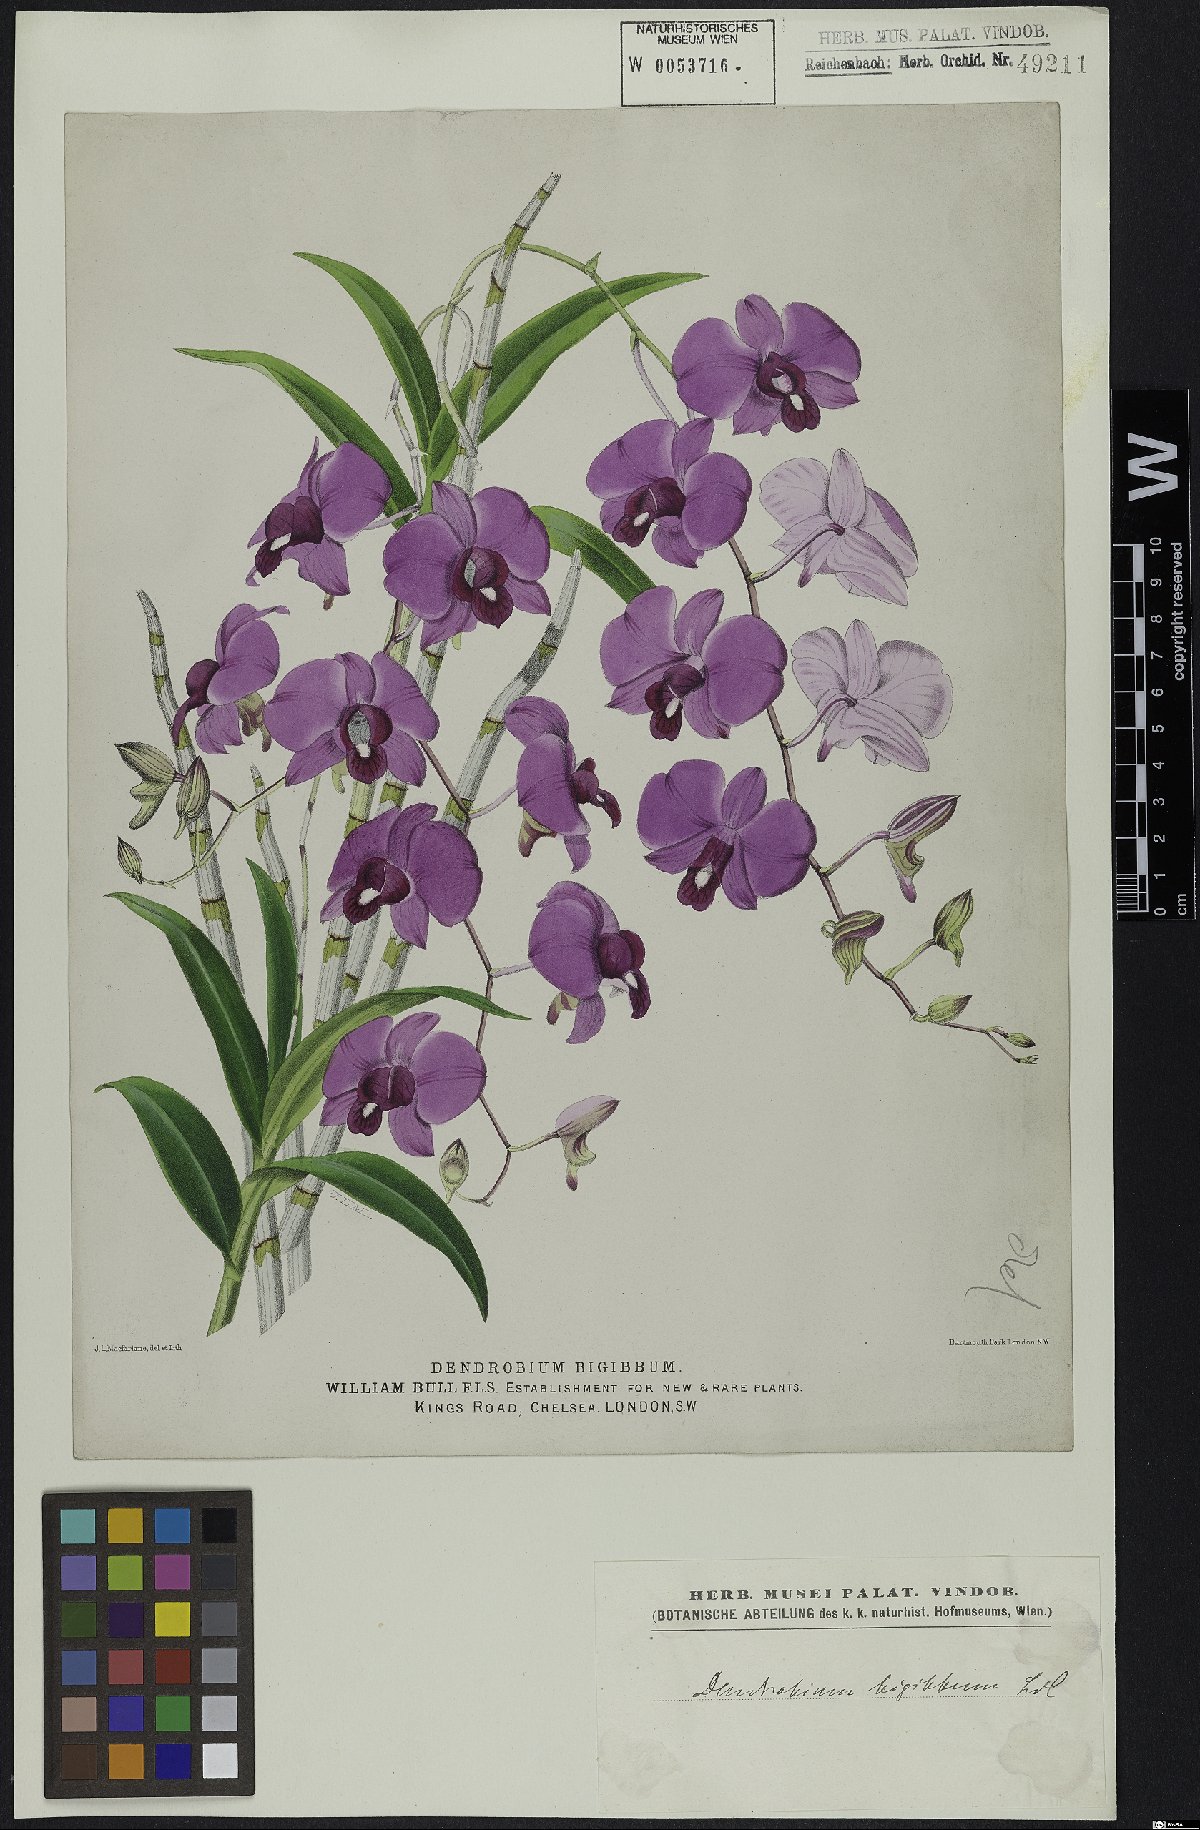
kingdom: Plantae
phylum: Tracheophyta
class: Liliopsida
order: Asparagales
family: Orchidaceae
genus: Dendrobium
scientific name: Dendrobium bigibbum
